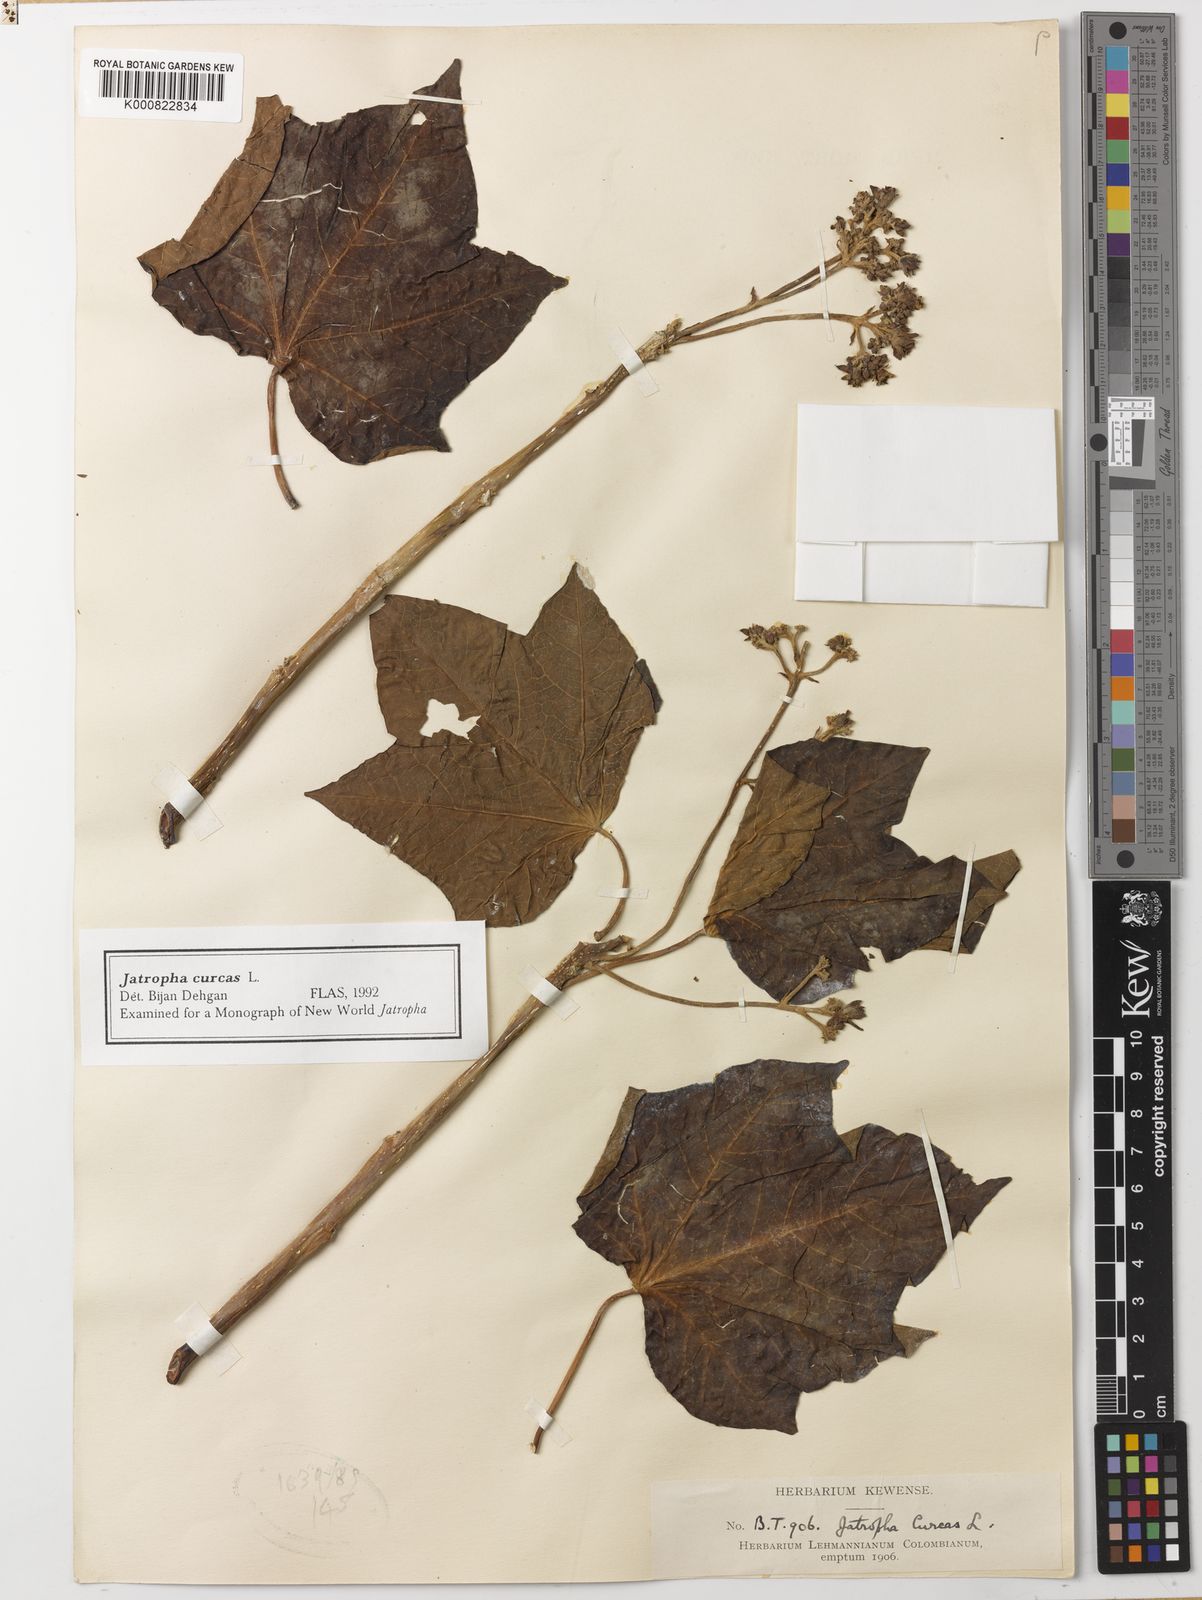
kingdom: Plantae
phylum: Tracheophyta
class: Magnoliopsida
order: Malpighiales
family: Euphorbiaceae
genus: Jatropha
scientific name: Jatropha curcas
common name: Barbados nut
